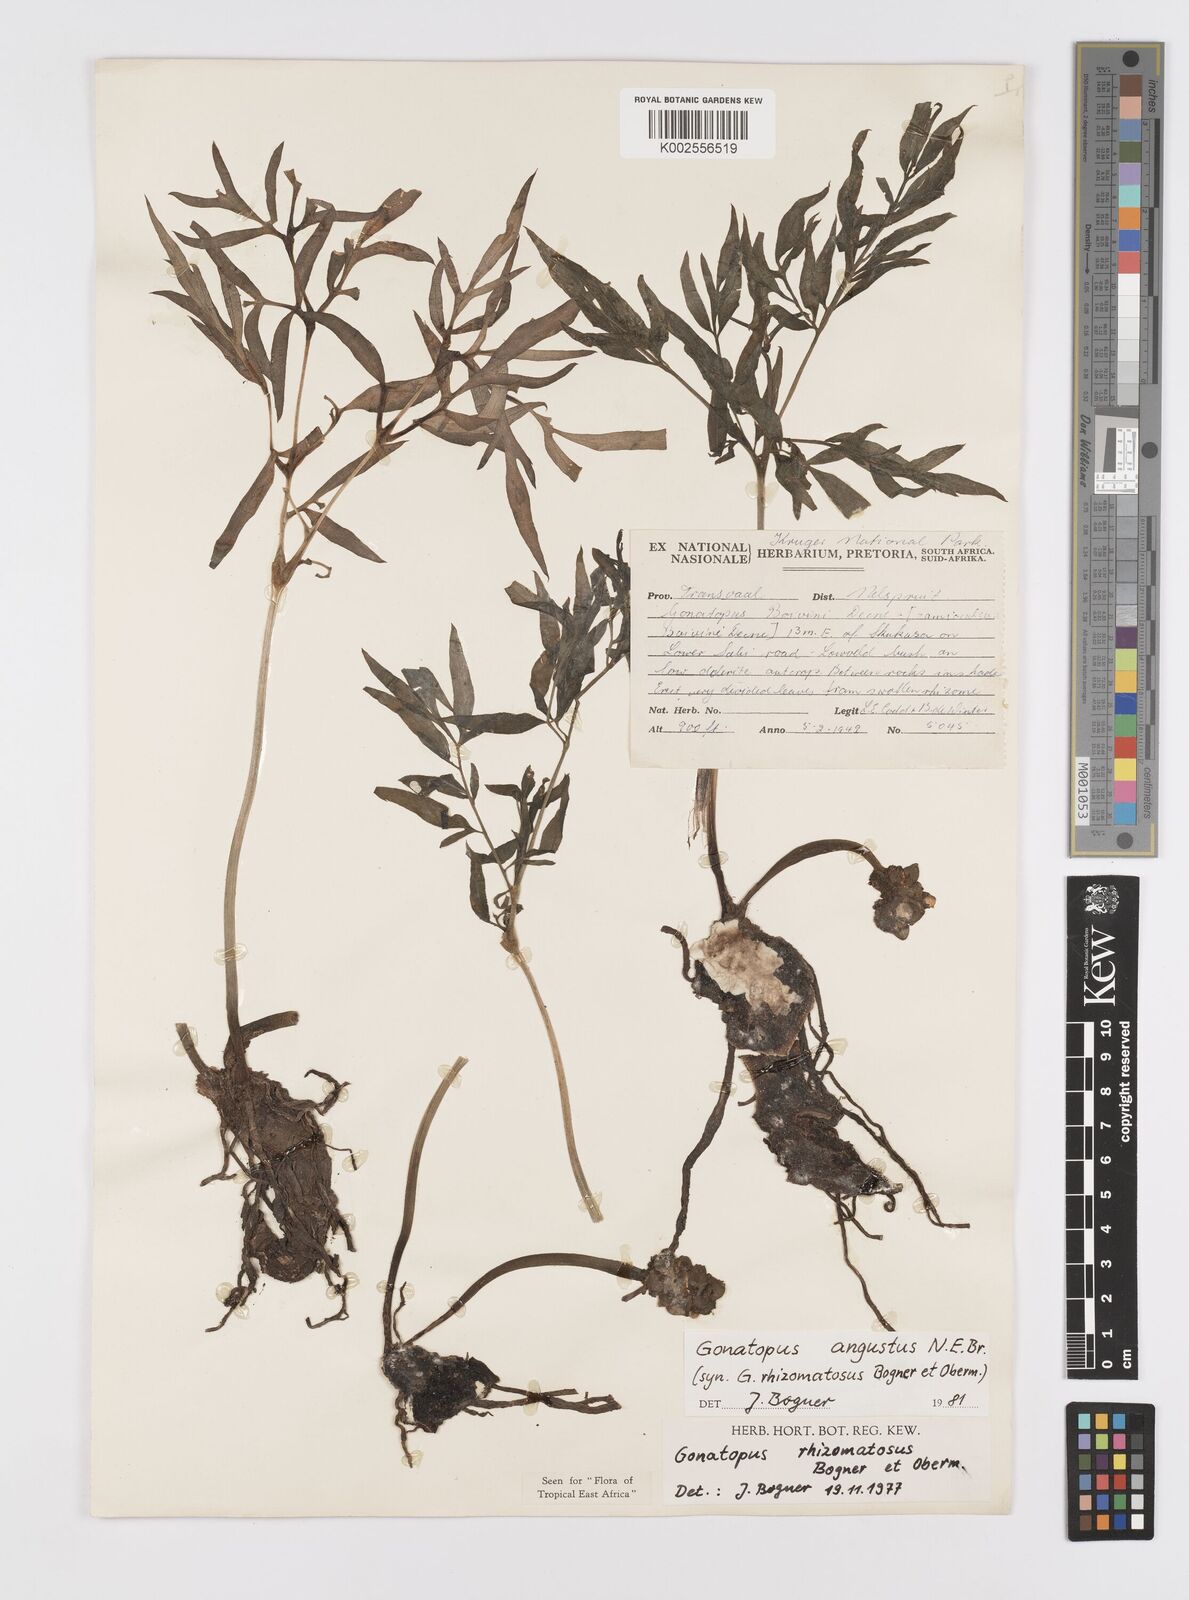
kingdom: Plantae
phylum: Tracheophyta
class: Liliopsida
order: Alismatales
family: Araceae
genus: Gonatopus
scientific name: Gonatopus angustus
